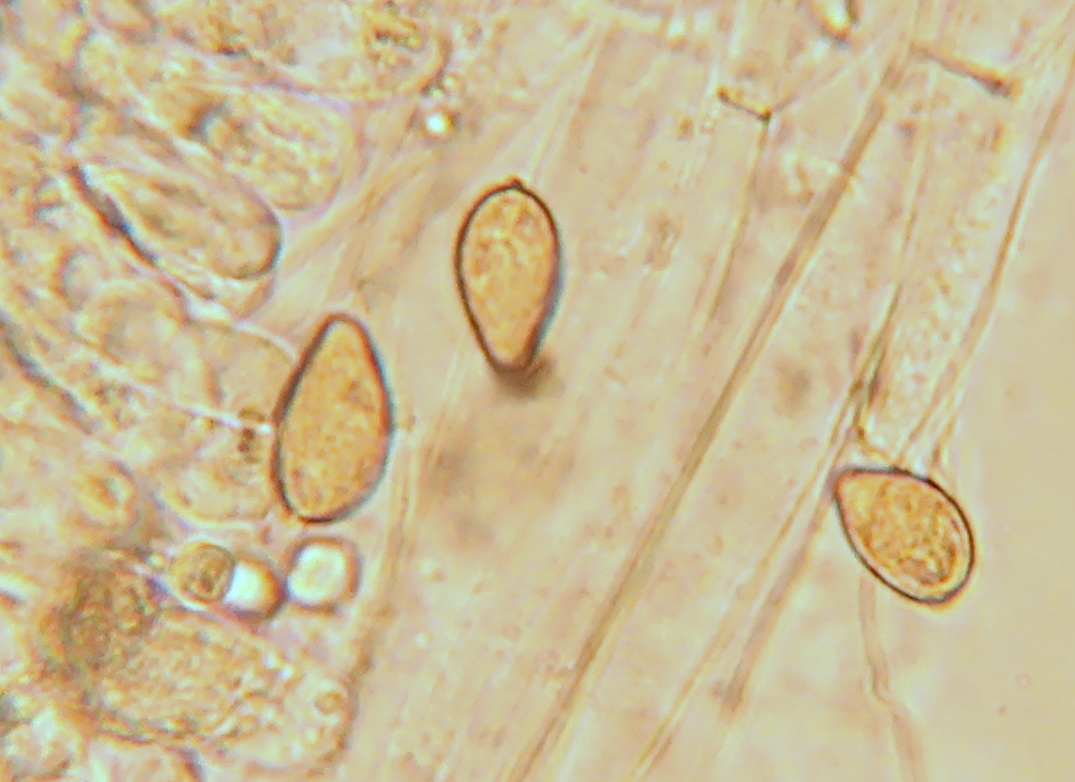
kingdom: Fungi
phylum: Basidiomycota
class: Agaricomycetes
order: Agaricales
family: Hymenogastraceae
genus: Hebeloma
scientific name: Hebeloma leucosarx
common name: højstokket tåreblad
